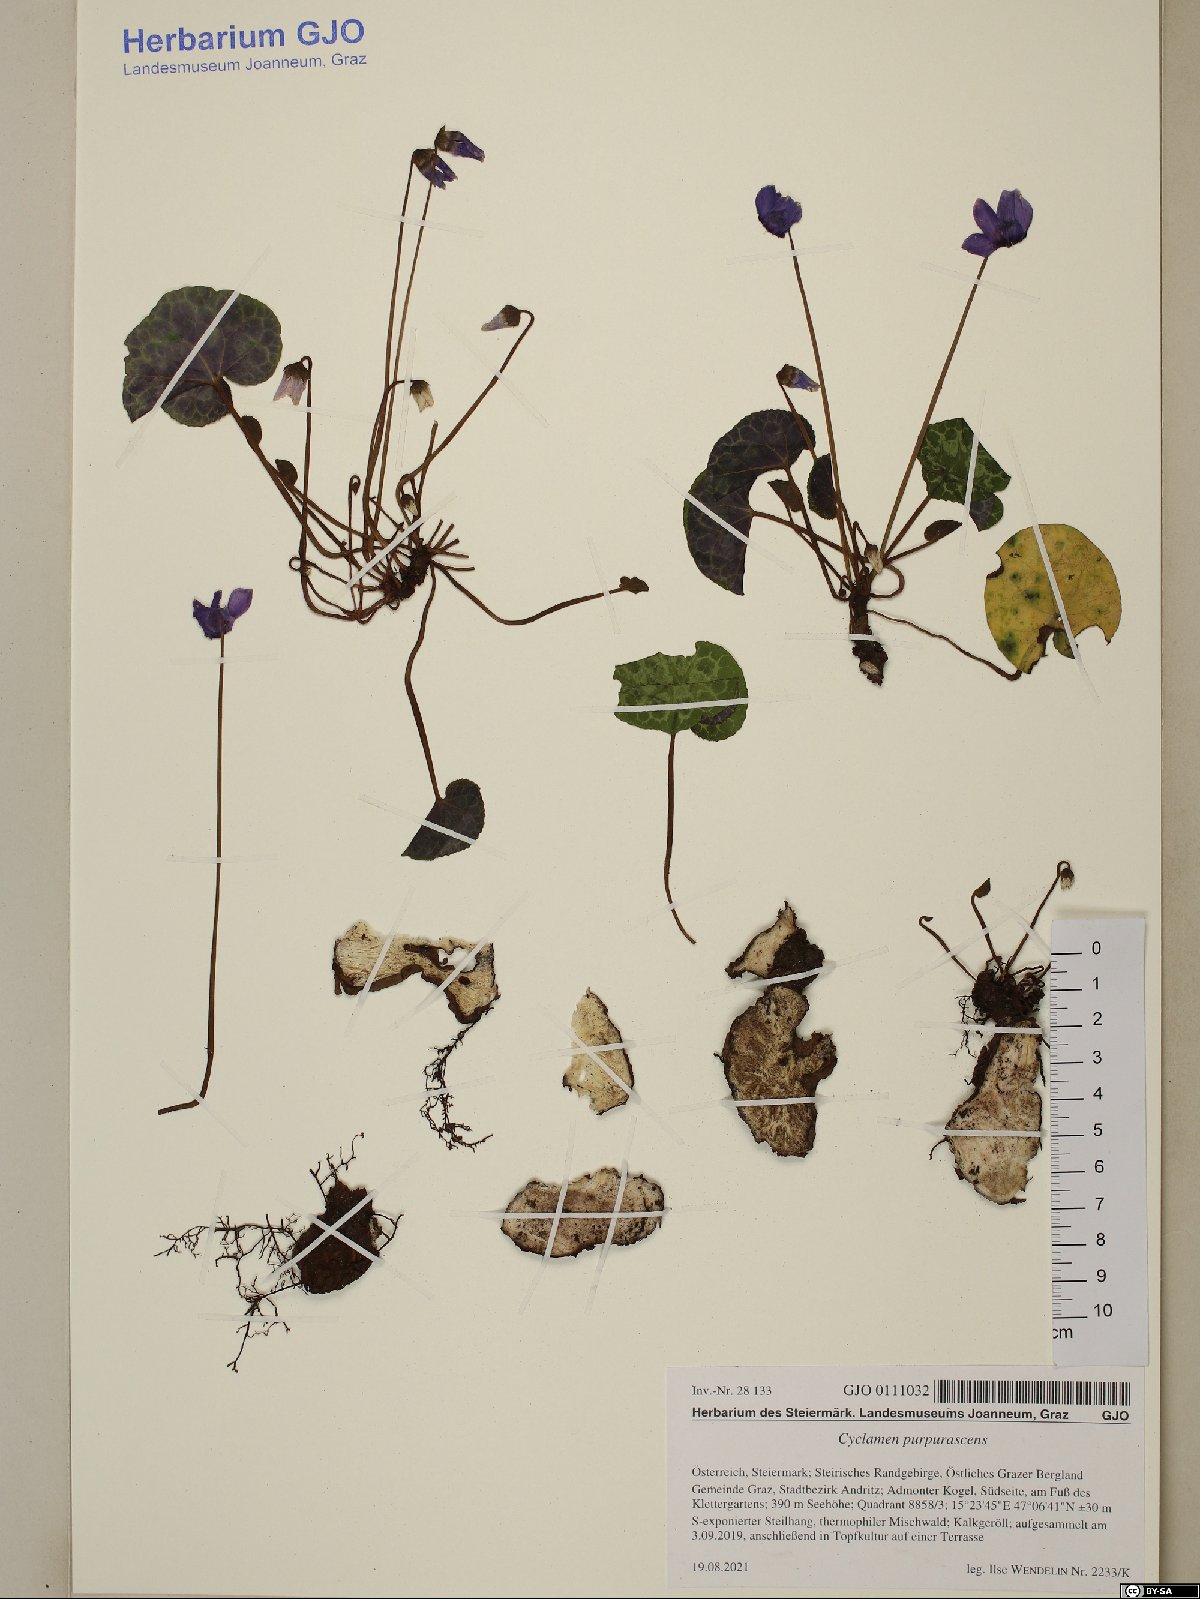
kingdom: Plantae
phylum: Tracheophyta
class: Magnoliopsida
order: Ericales
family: Primulaceae
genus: Cyclamen
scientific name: Cyclamen purpurascens
